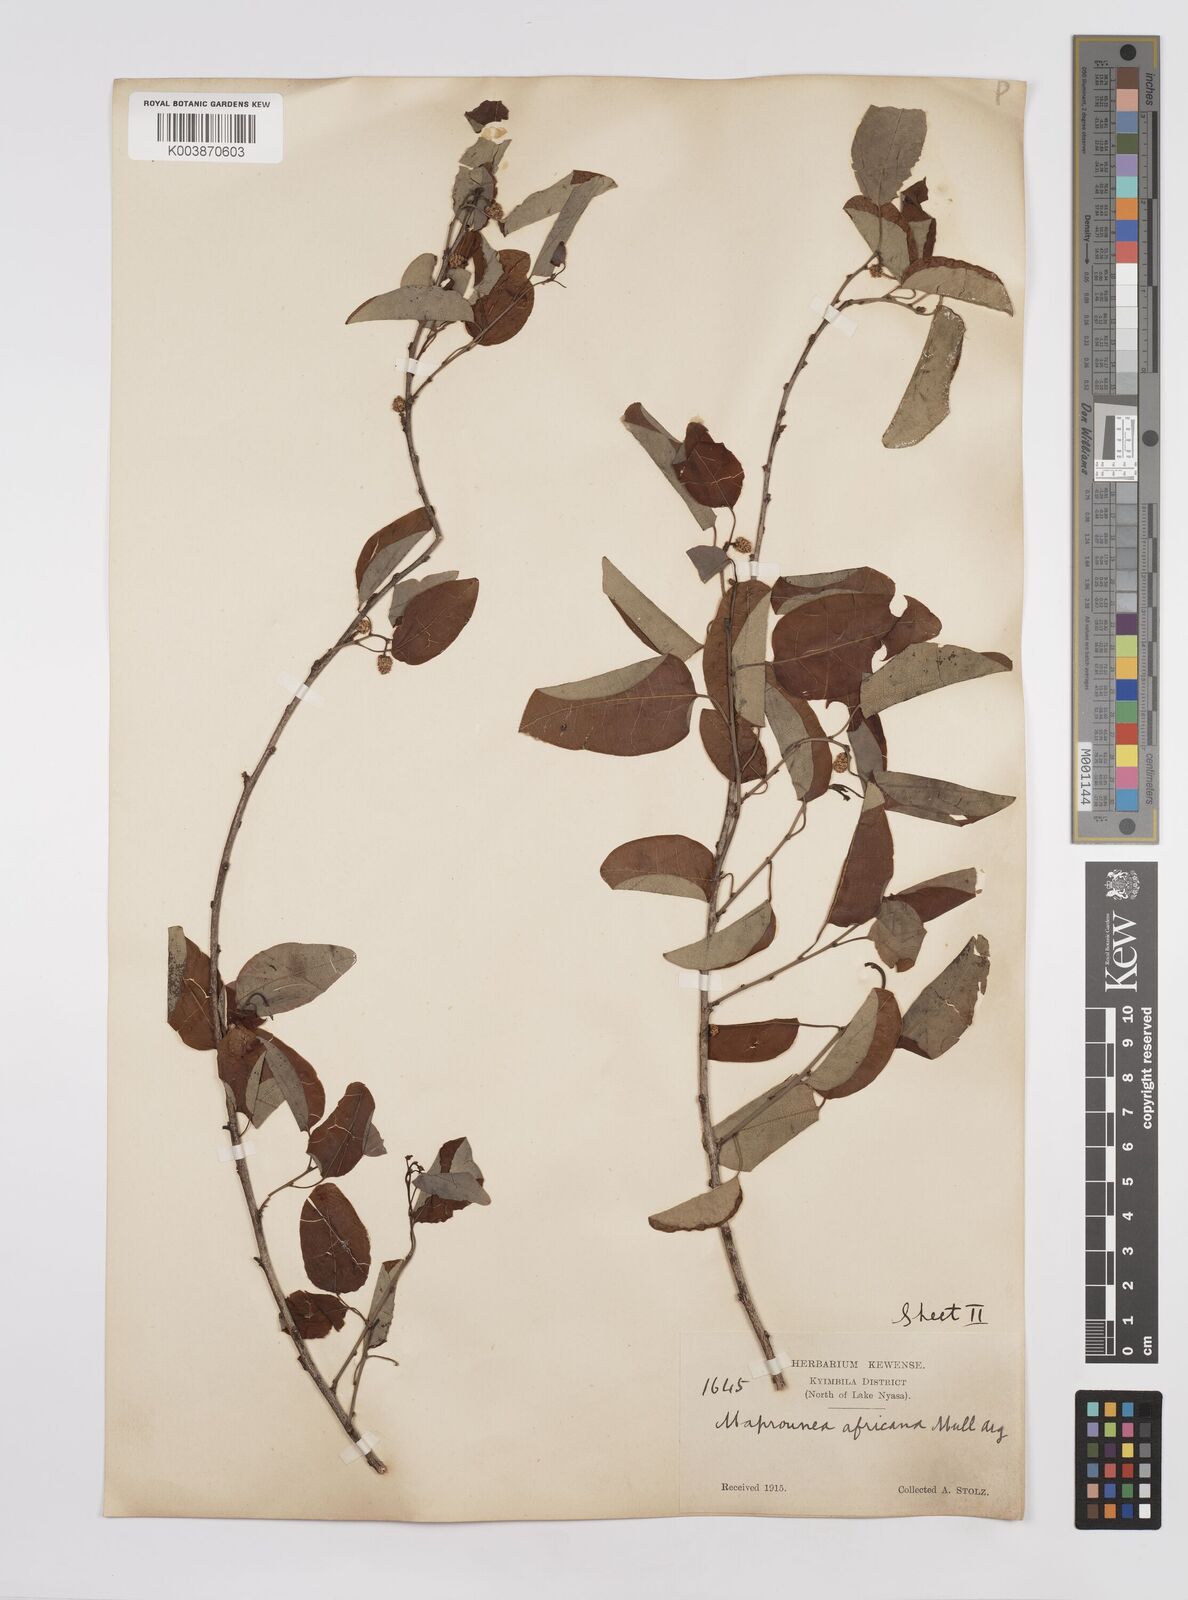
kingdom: Plantae
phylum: Tracheophyta
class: Magnoliopsida
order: Malpighiales
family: Euphorbiaceae
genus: Maprounea
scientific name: Maprounea africana
